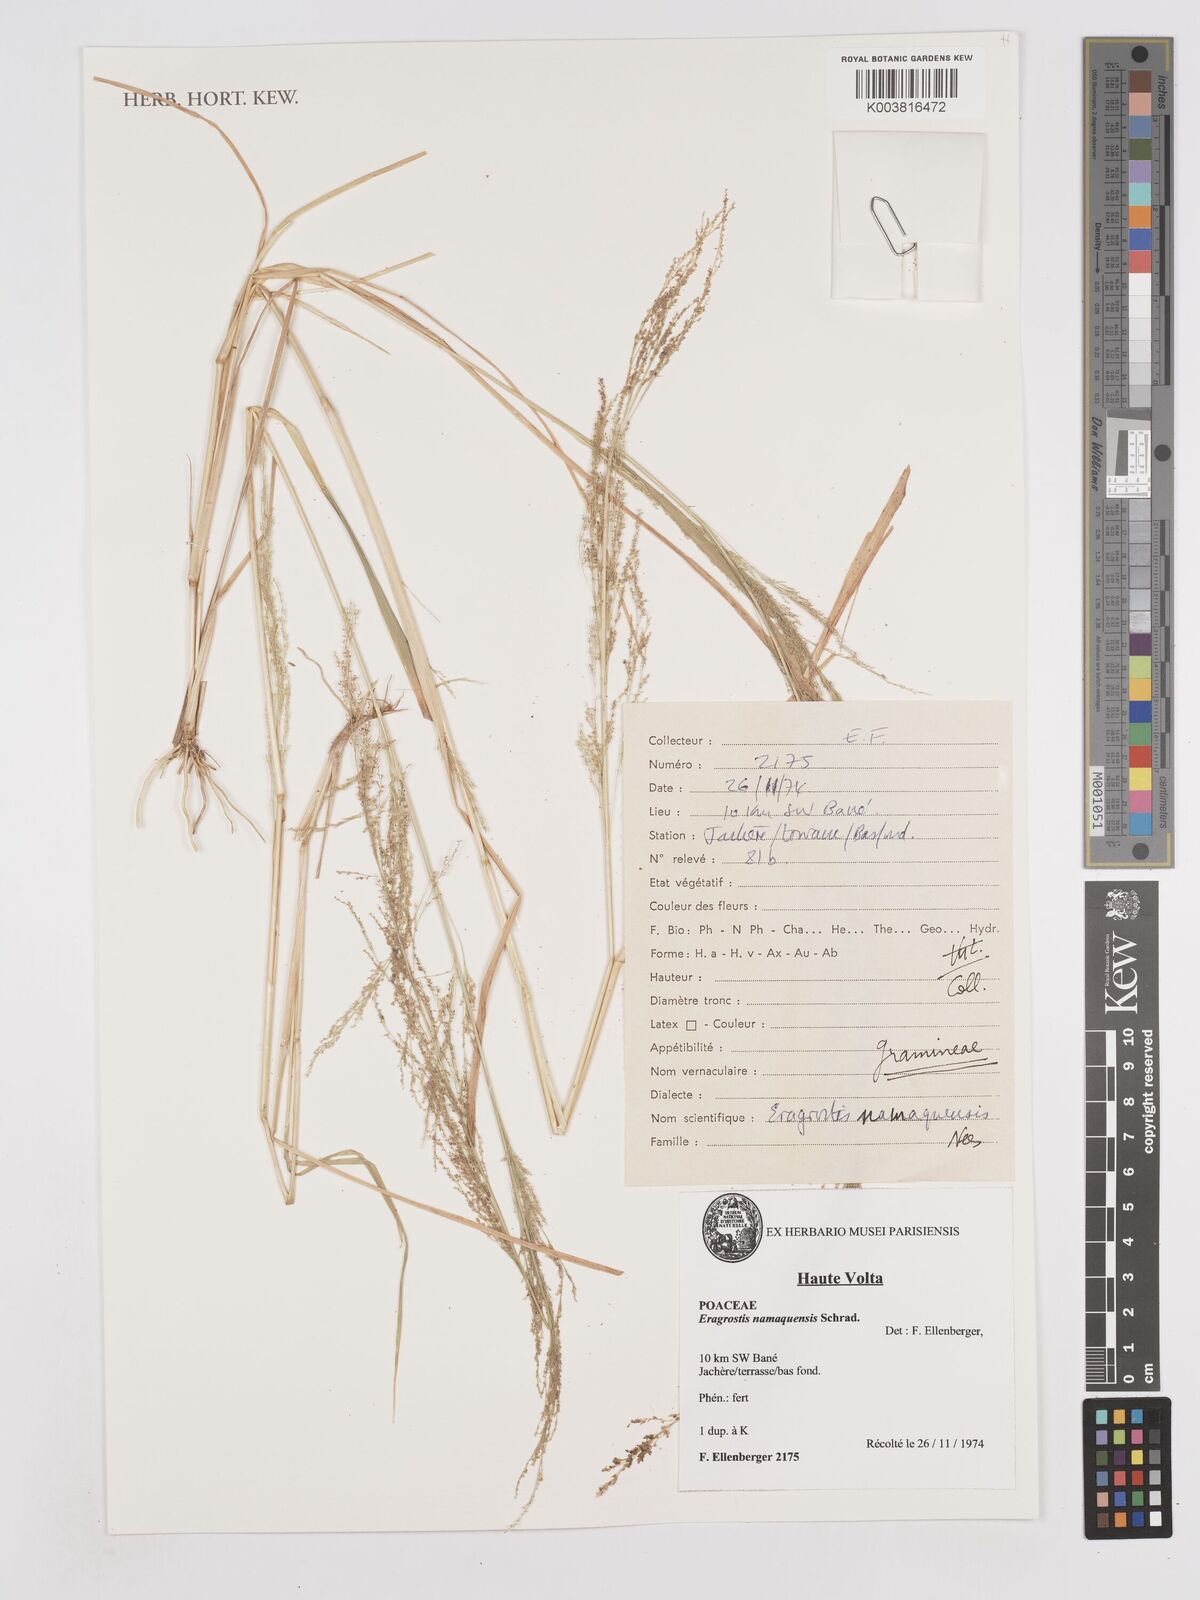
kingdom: Plantae
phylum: Tracheophyta
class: Liliopsida
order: Poales
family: Poaceae
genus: Eragrostis
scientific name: Eragrostis japonica
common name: Pond lovegrass
